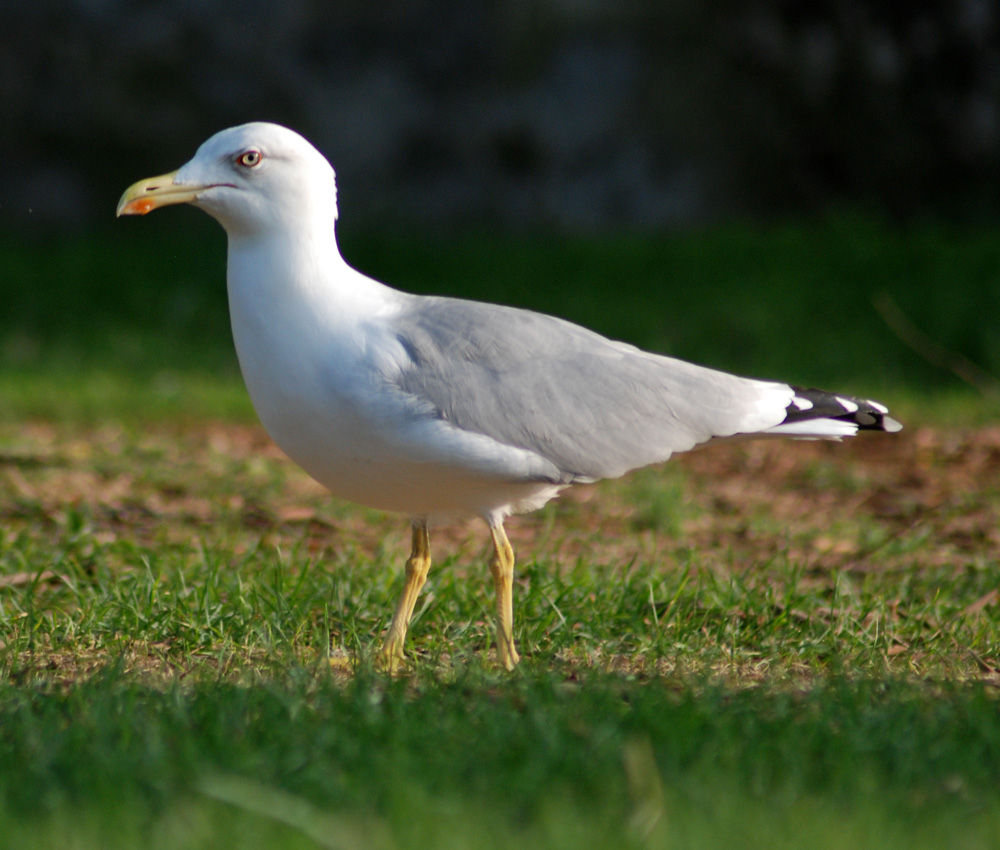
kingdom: Animalia
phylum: Chordata
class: Aves
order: Charadriiformes
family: Laridae
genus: Larus
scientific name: Larus michahellis
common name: Yellow-legged gull
